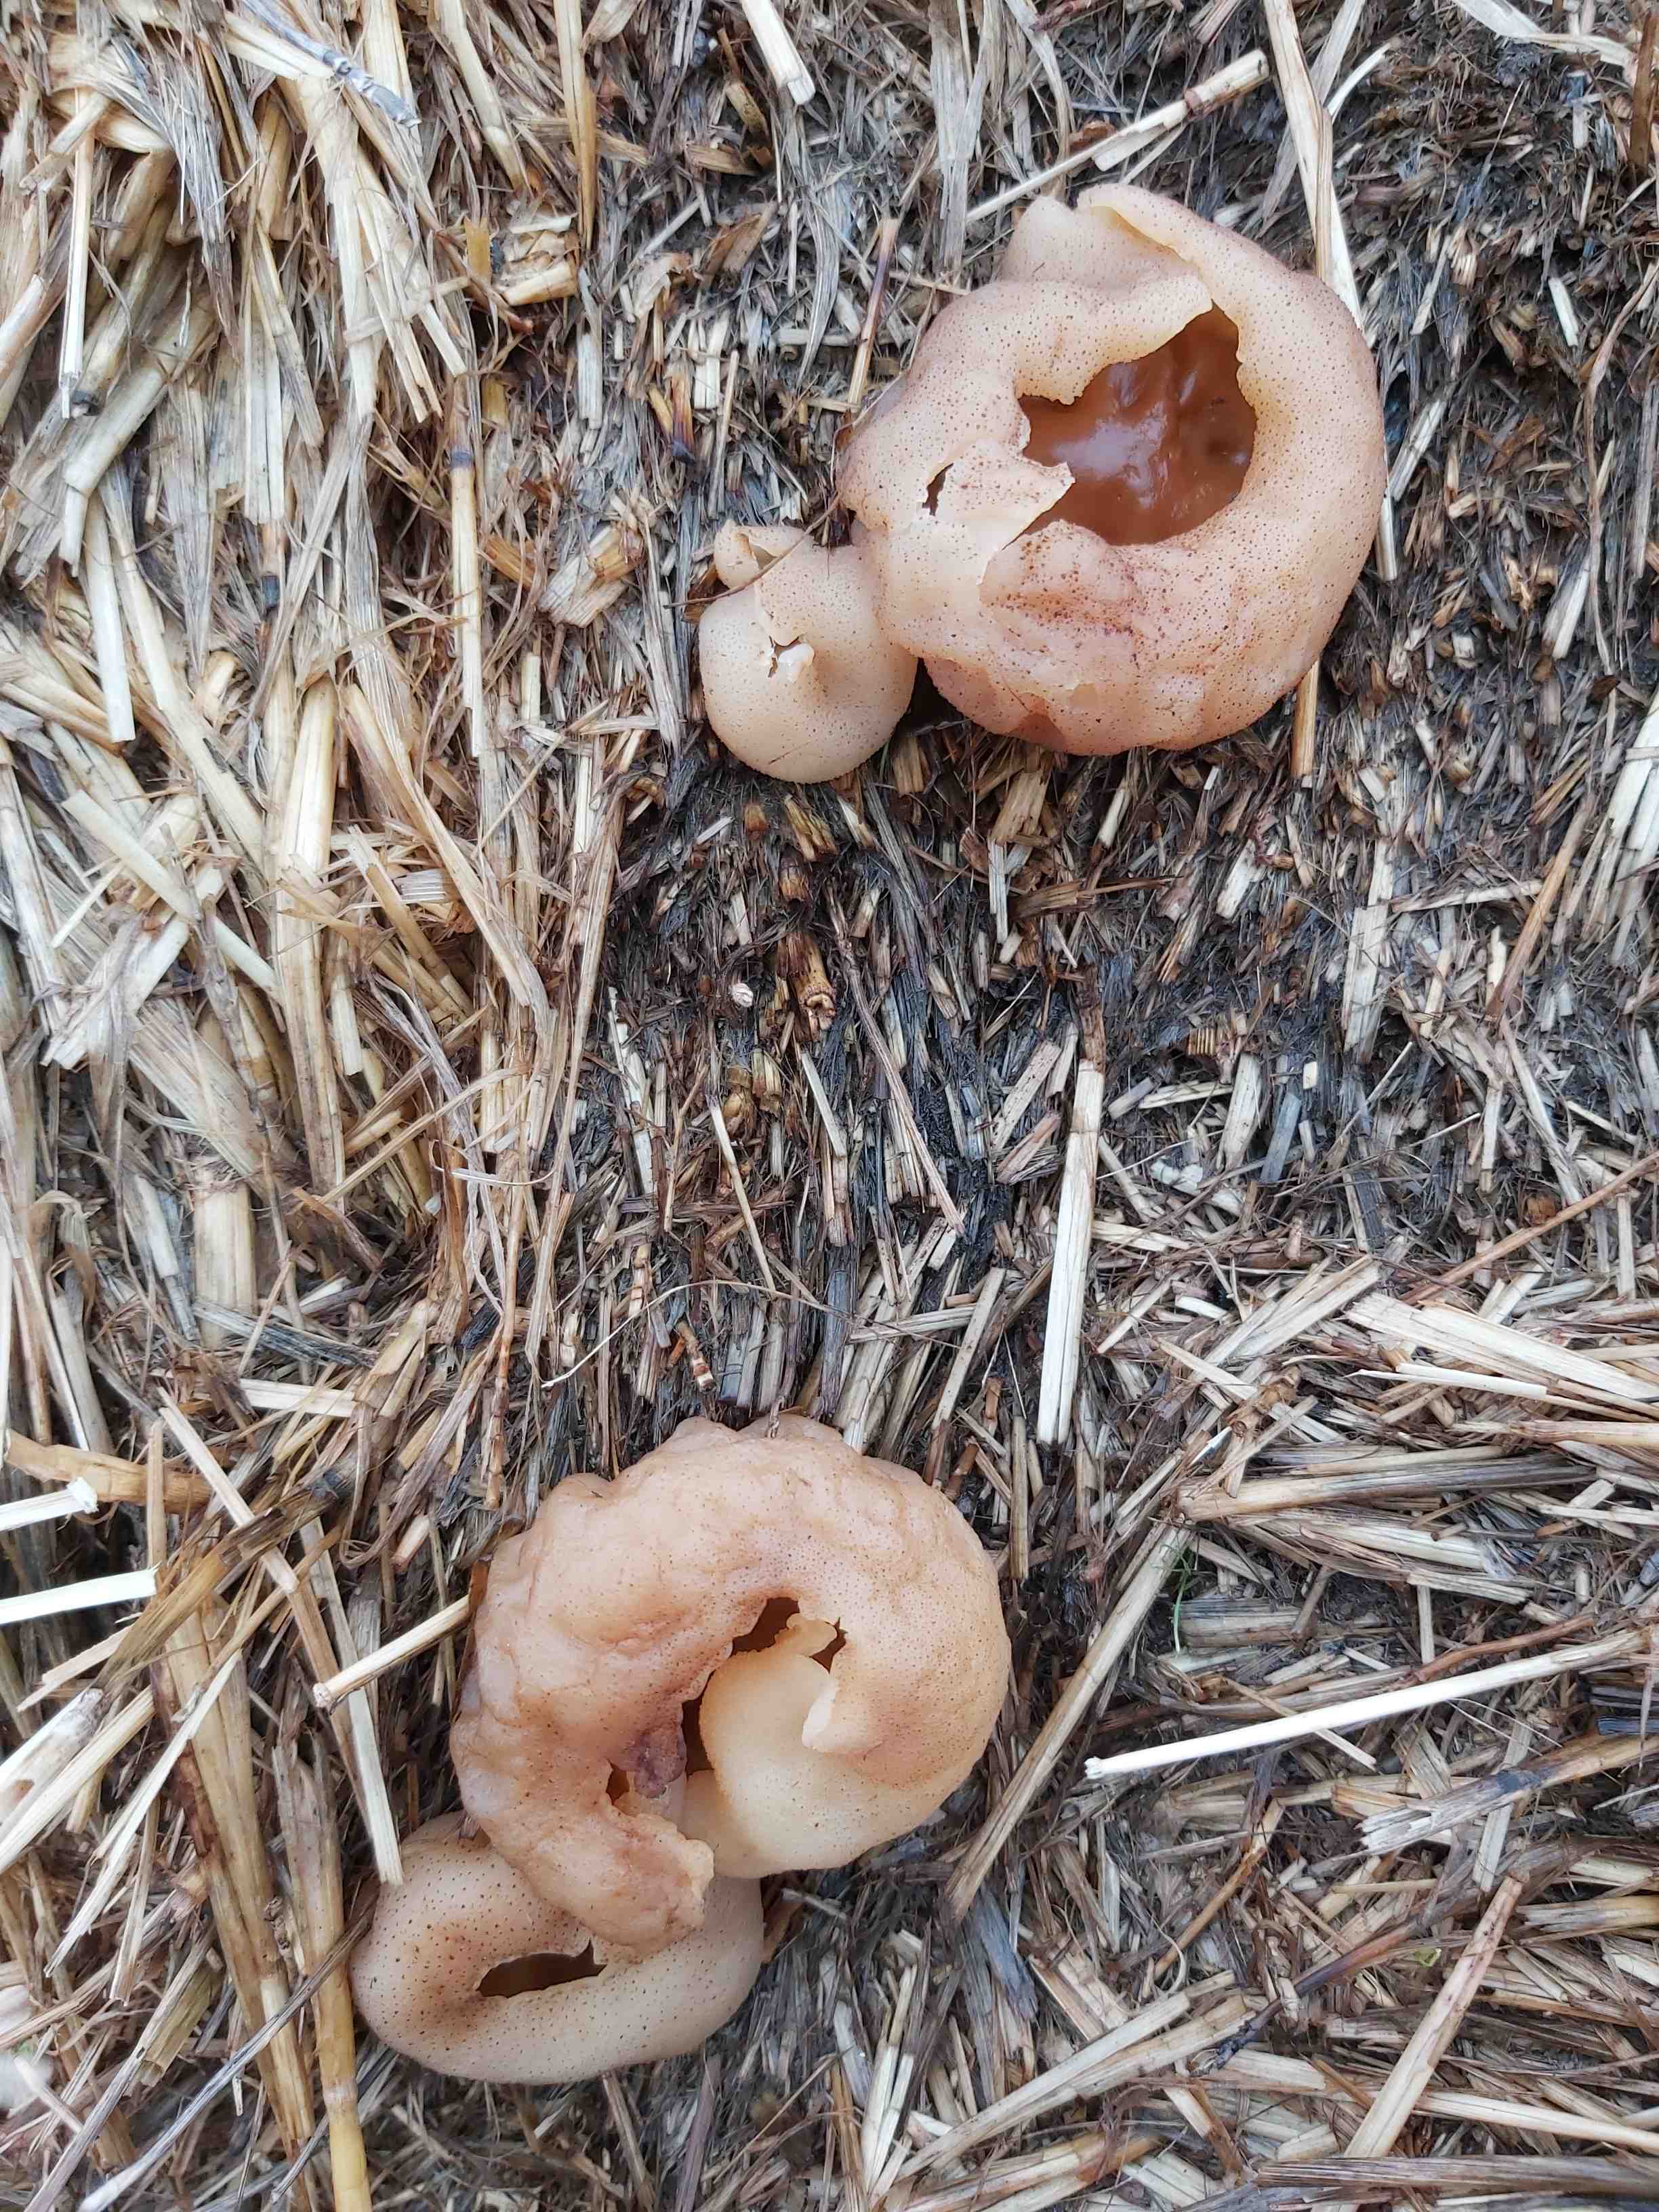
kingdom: Fungi
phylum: Ascomycota
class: Pezizomycetes
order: Pezizales
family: Pezizaceae
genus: Peziza
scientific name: Peziza vesiculosa
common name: blære-bægersvamp
